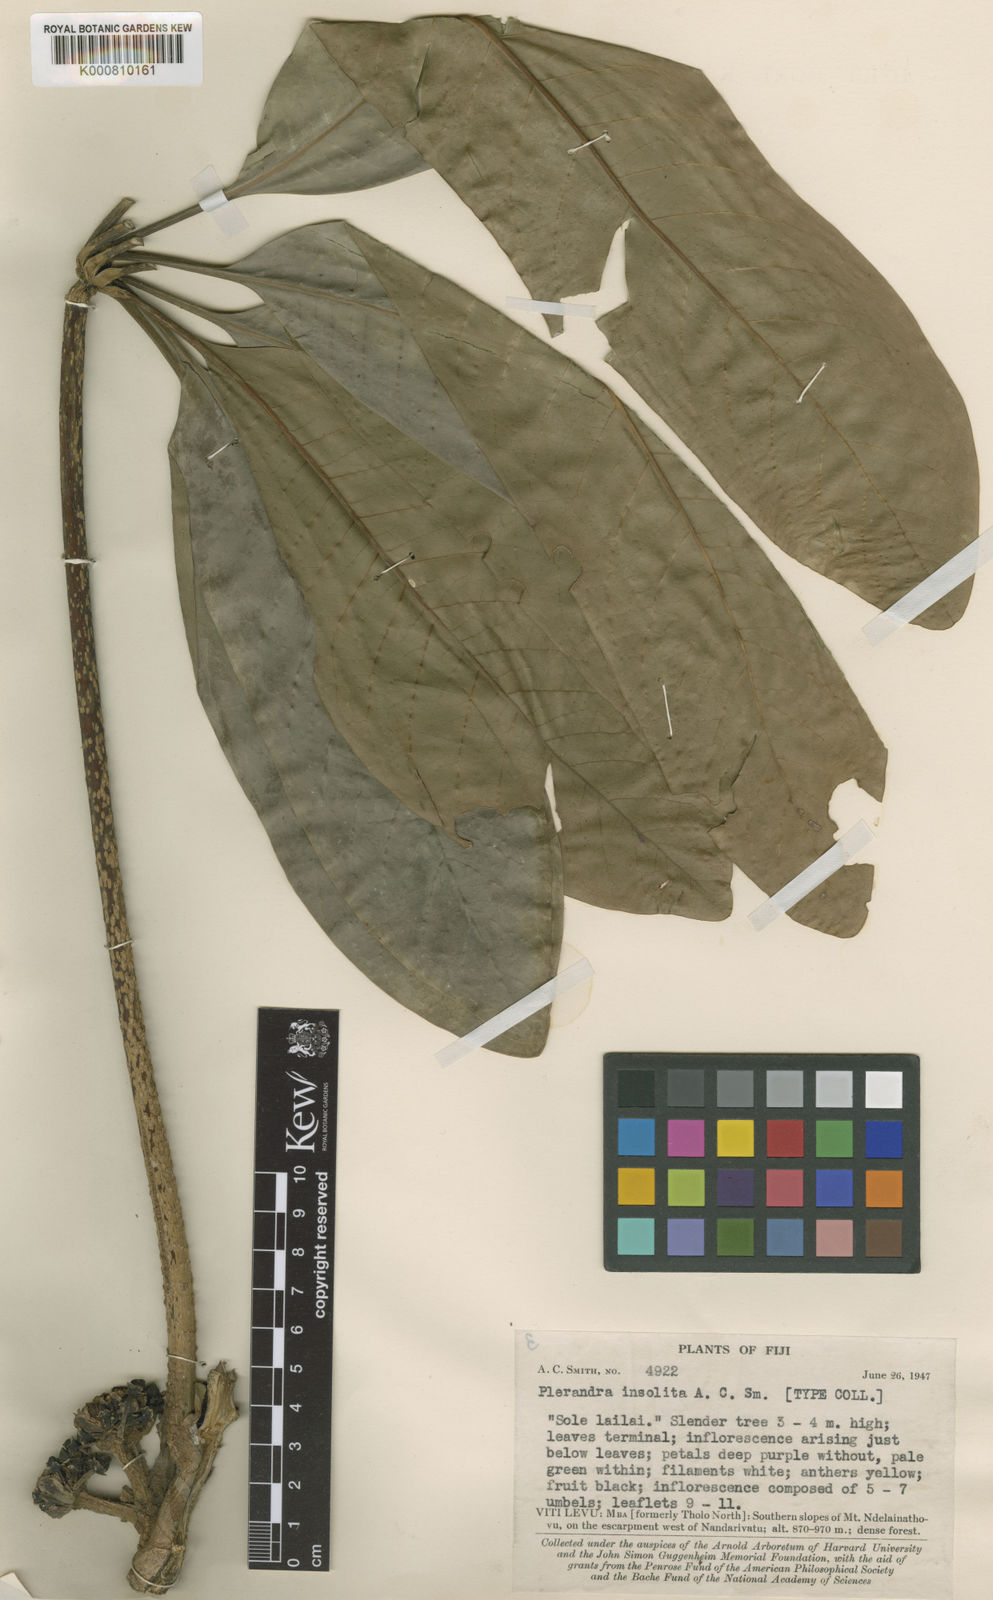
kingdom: Plantae
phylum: Tracheophyta
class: Magnoliopsida
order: Apiales
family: Araliaceae
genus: Plerandra
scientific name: Plerandra insolita
